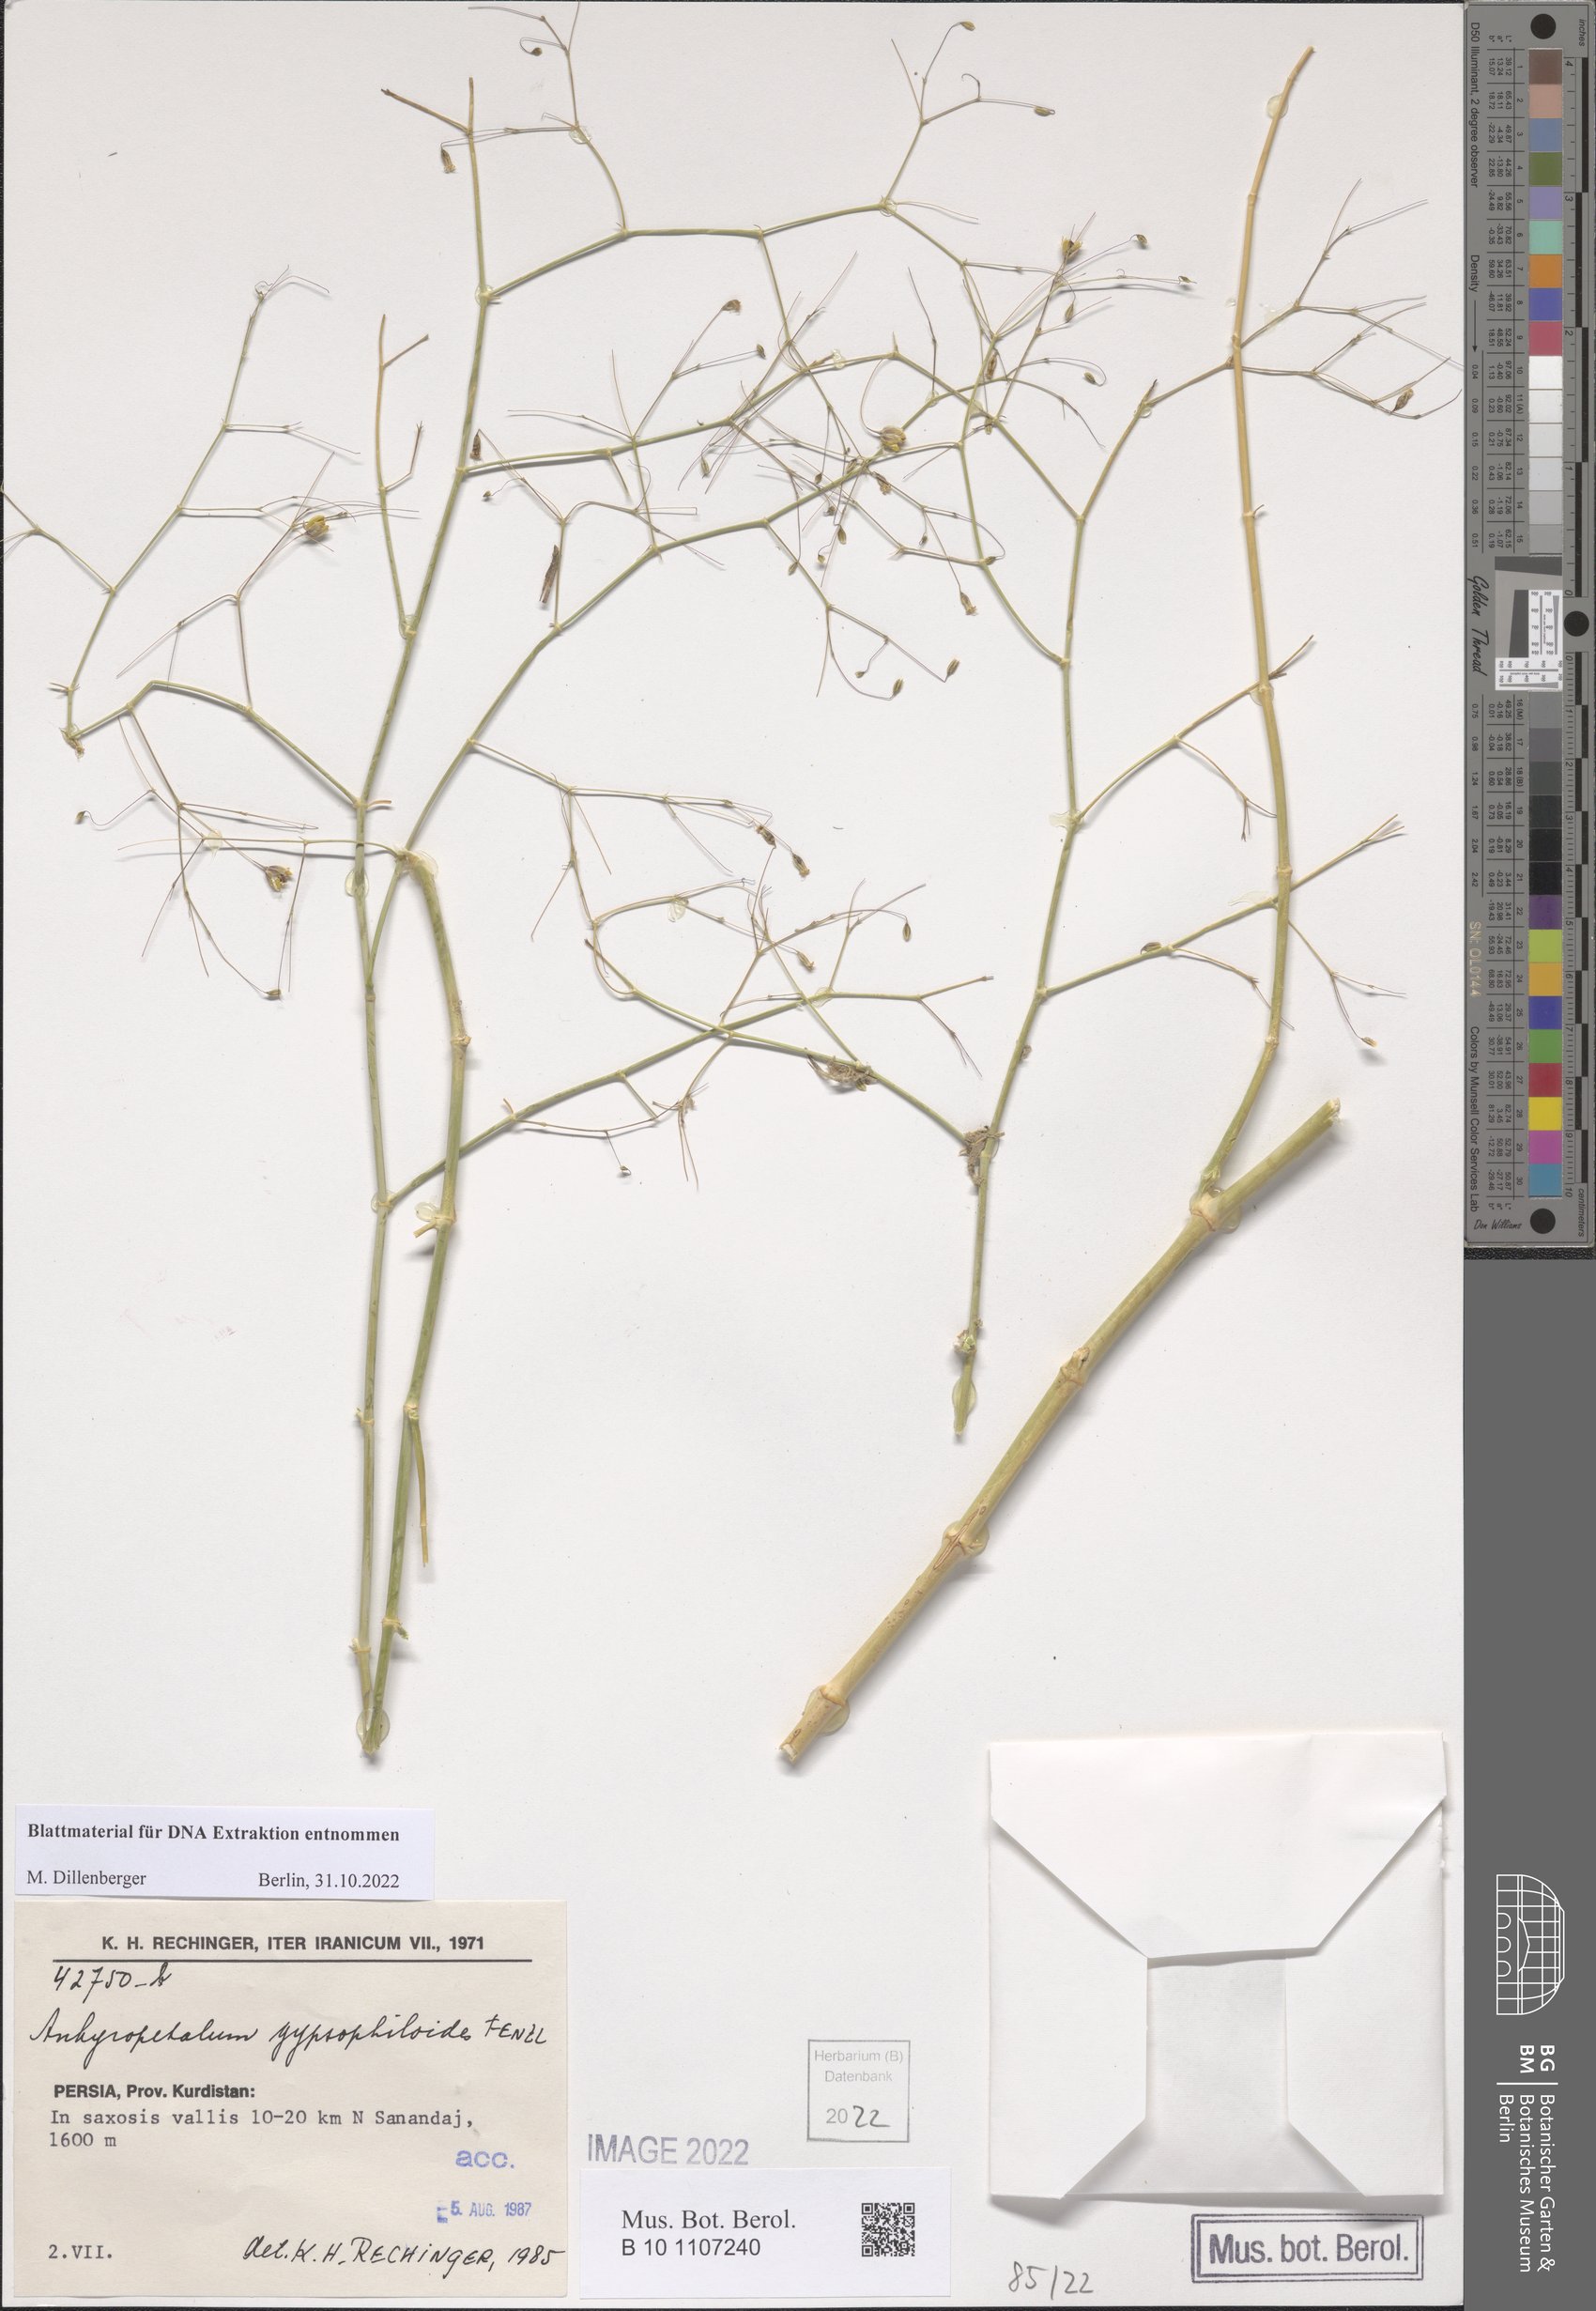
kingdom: Plantae
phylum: Tracheophyta
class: Magnoliopsida
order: Caryophyllales
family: Caryophyllaceae
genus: Mesostemma
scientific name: Mesostemma gypsophiloides
